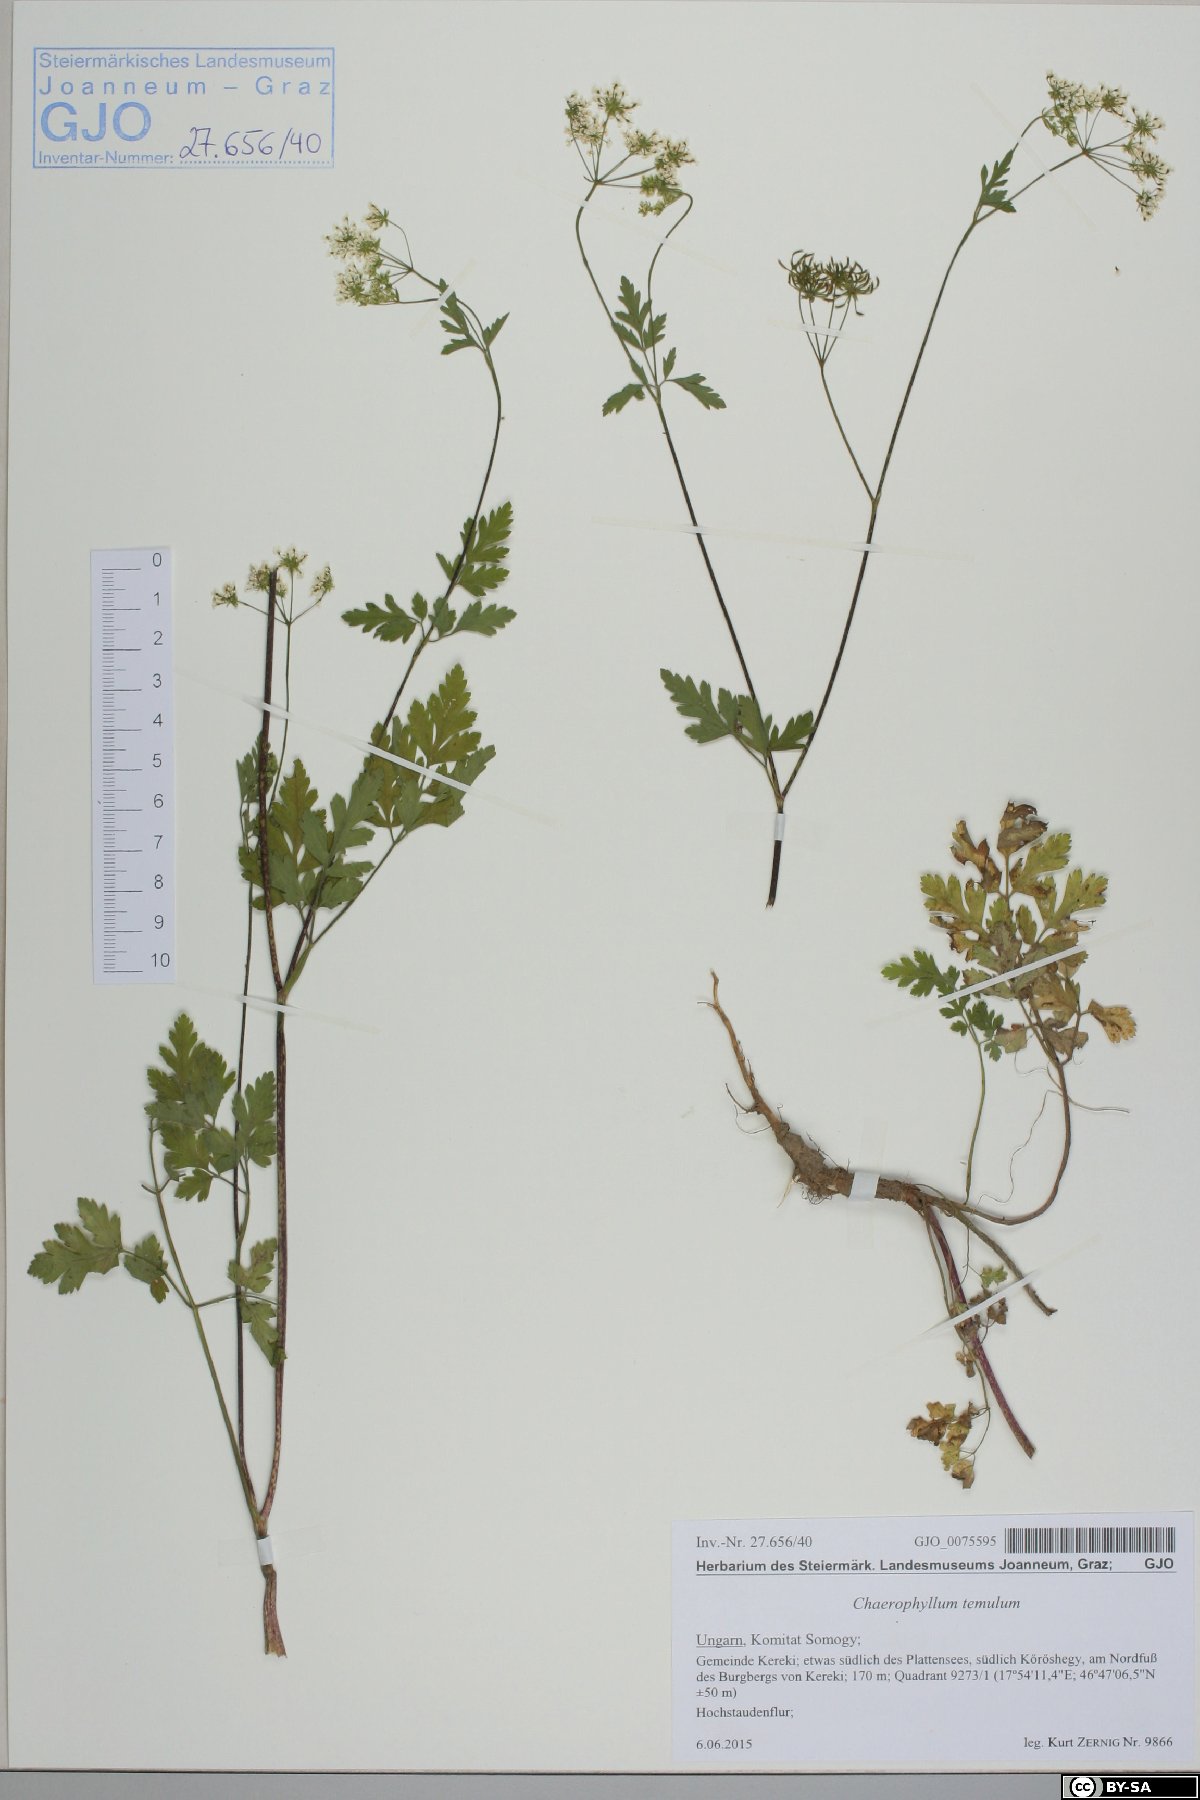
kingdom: Plantae
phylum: Tracheophyta
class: Magnoliopsida
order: Apiales
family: Apiaceae
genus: Chaerophyllum
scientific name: Chaerophyllum temulum
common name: Rough chervil
